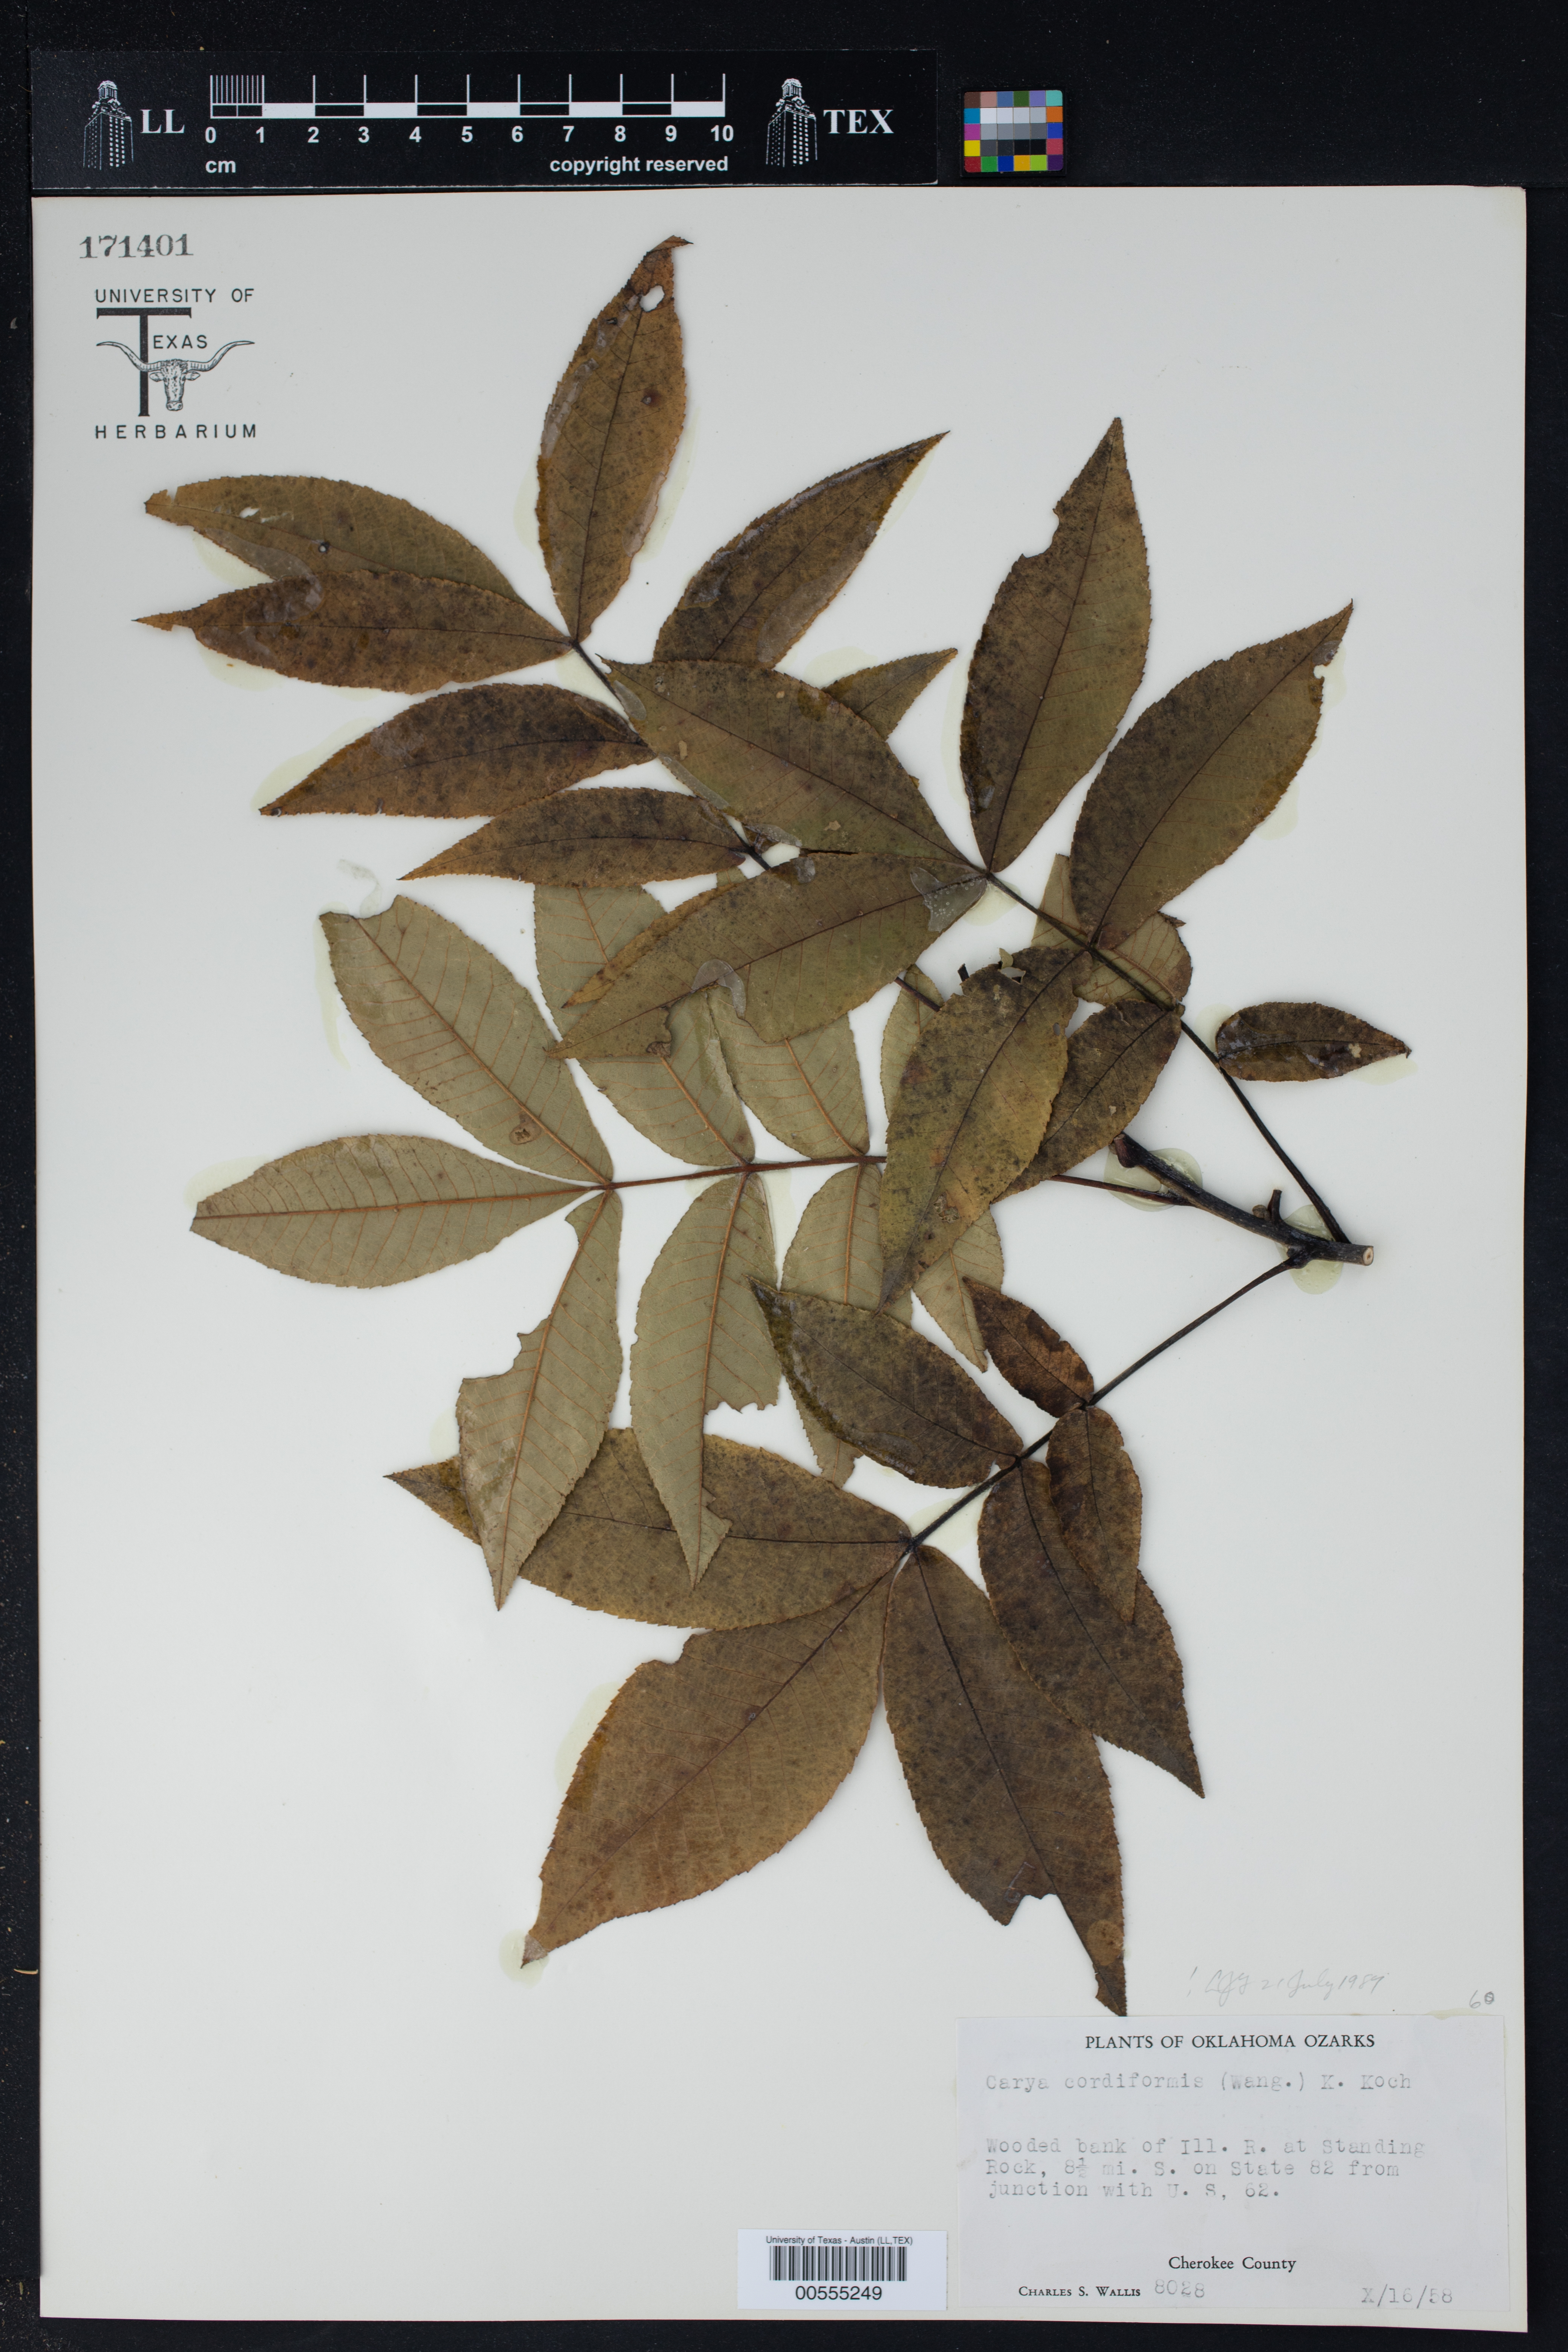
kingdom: Plantae
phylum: Tracheophyta
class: Magnoliopsida
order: Fagales
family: Juglandaceae
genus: Carya
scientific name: Carya cordiformis
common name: Bitternut hickory
